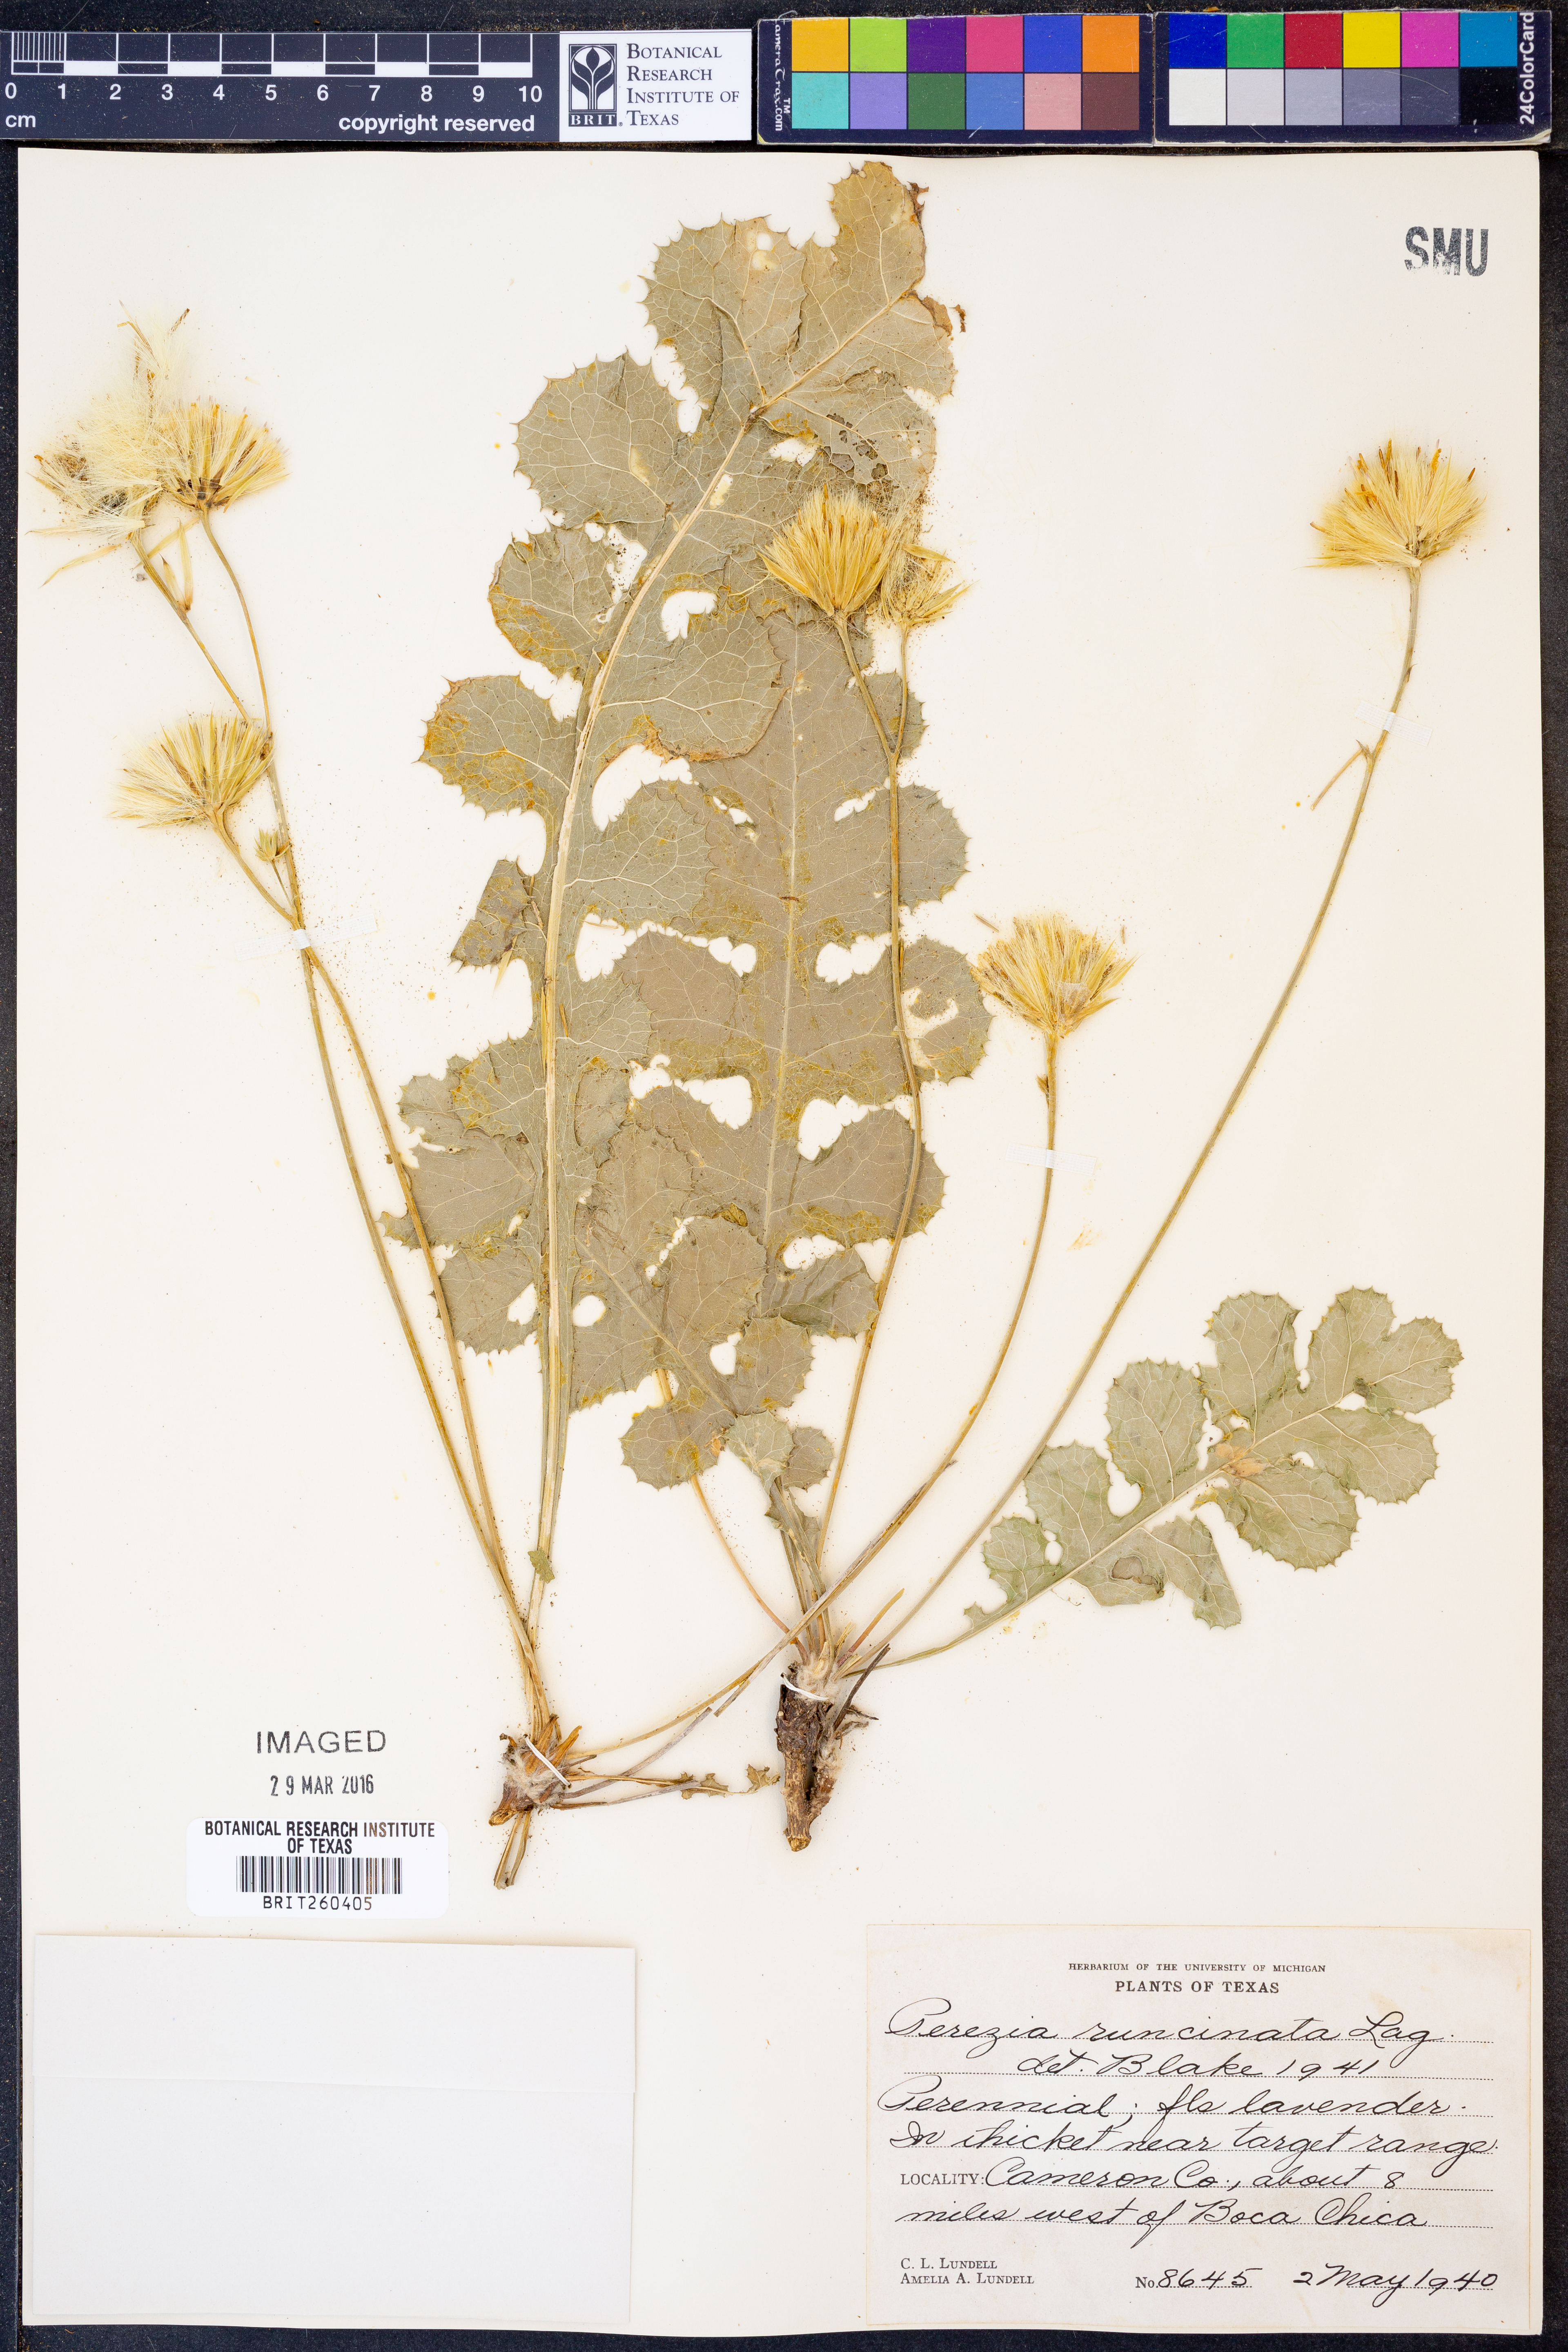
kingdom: Plantae
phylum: Tracheophyta
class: Magnoliopsida
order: Asterales
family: Asteraceae
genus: Acourtia
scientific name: Acourtia runcinata
